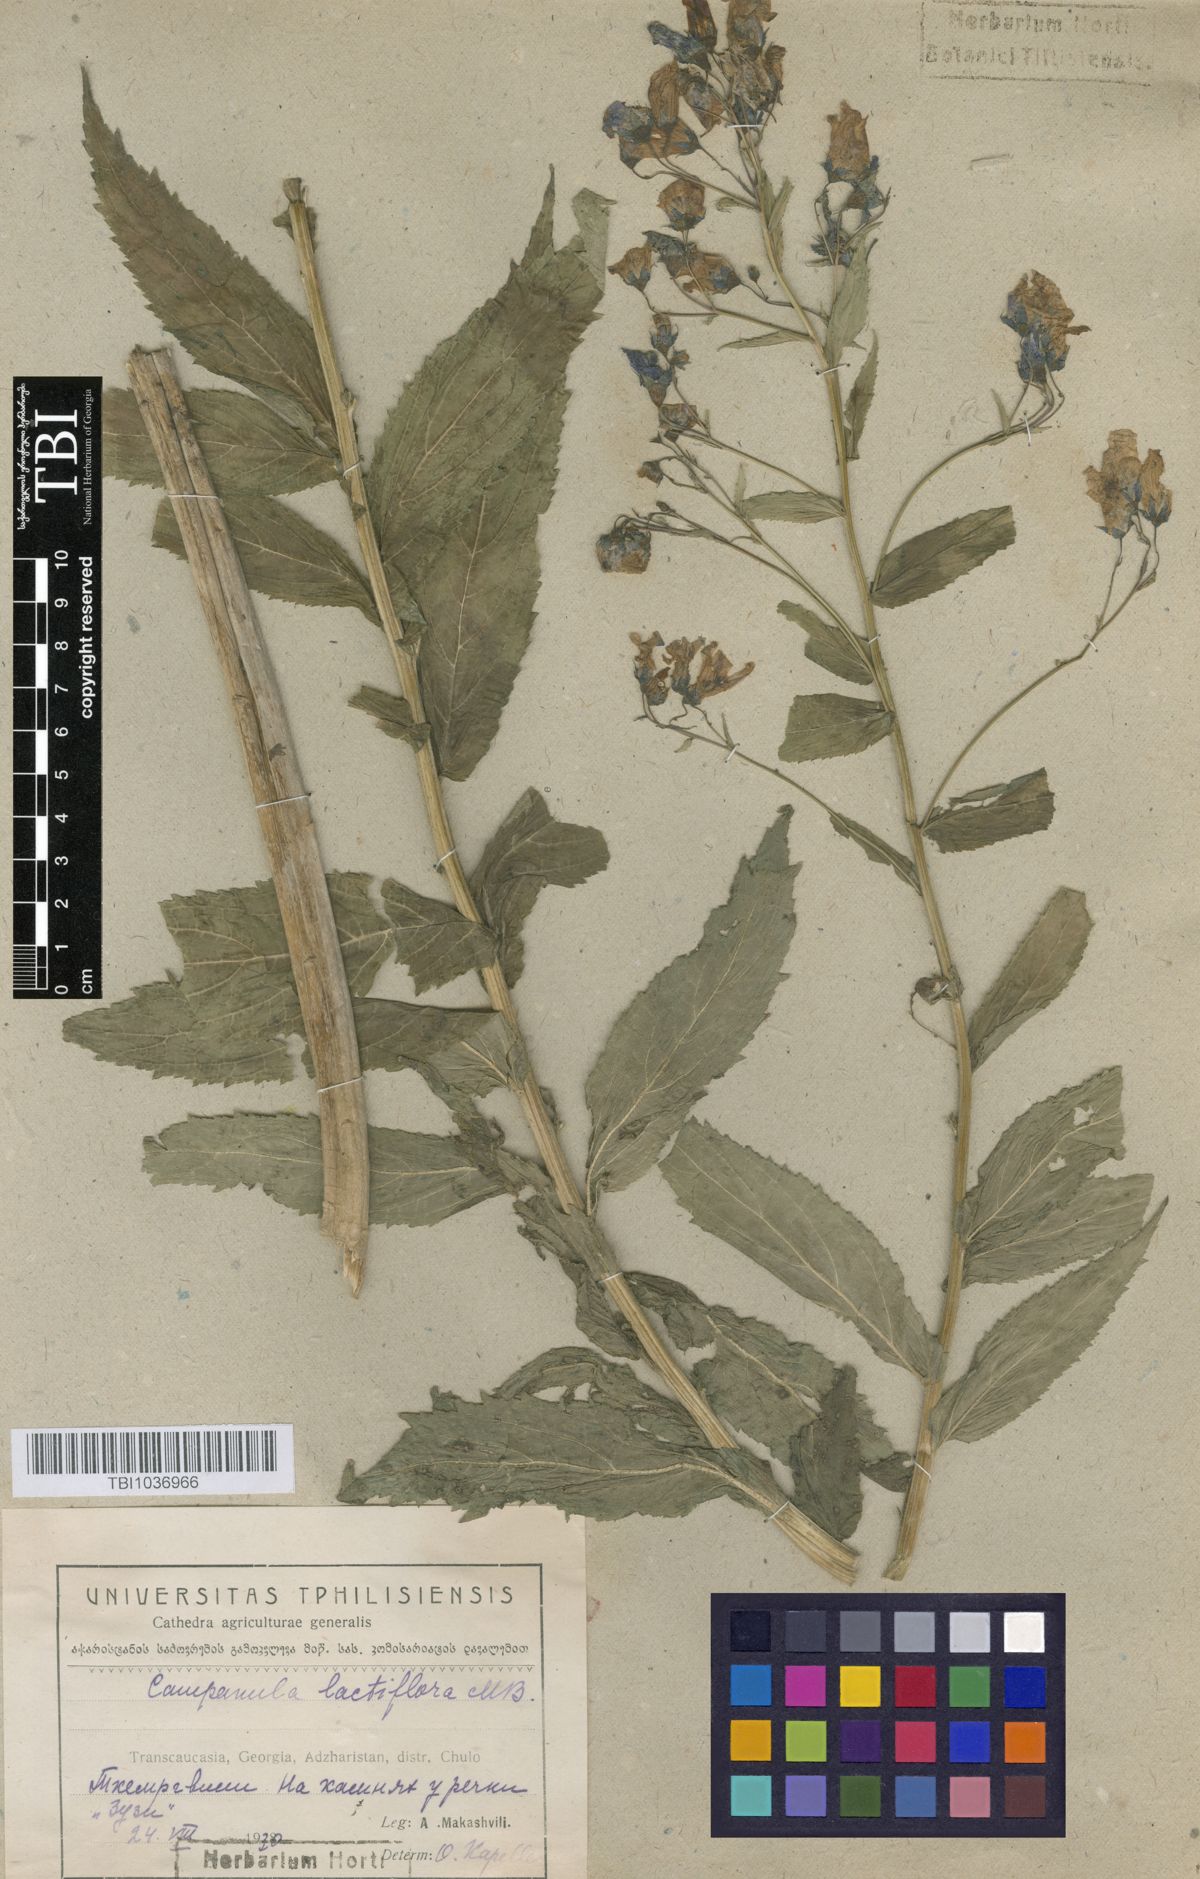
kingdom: Plantae
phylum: Tracheophyta
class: Magnoliopsida
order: Asterales
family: Campanulaceae
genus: Campanula
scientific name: Campanula lactiflora
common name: Milky bellflower
